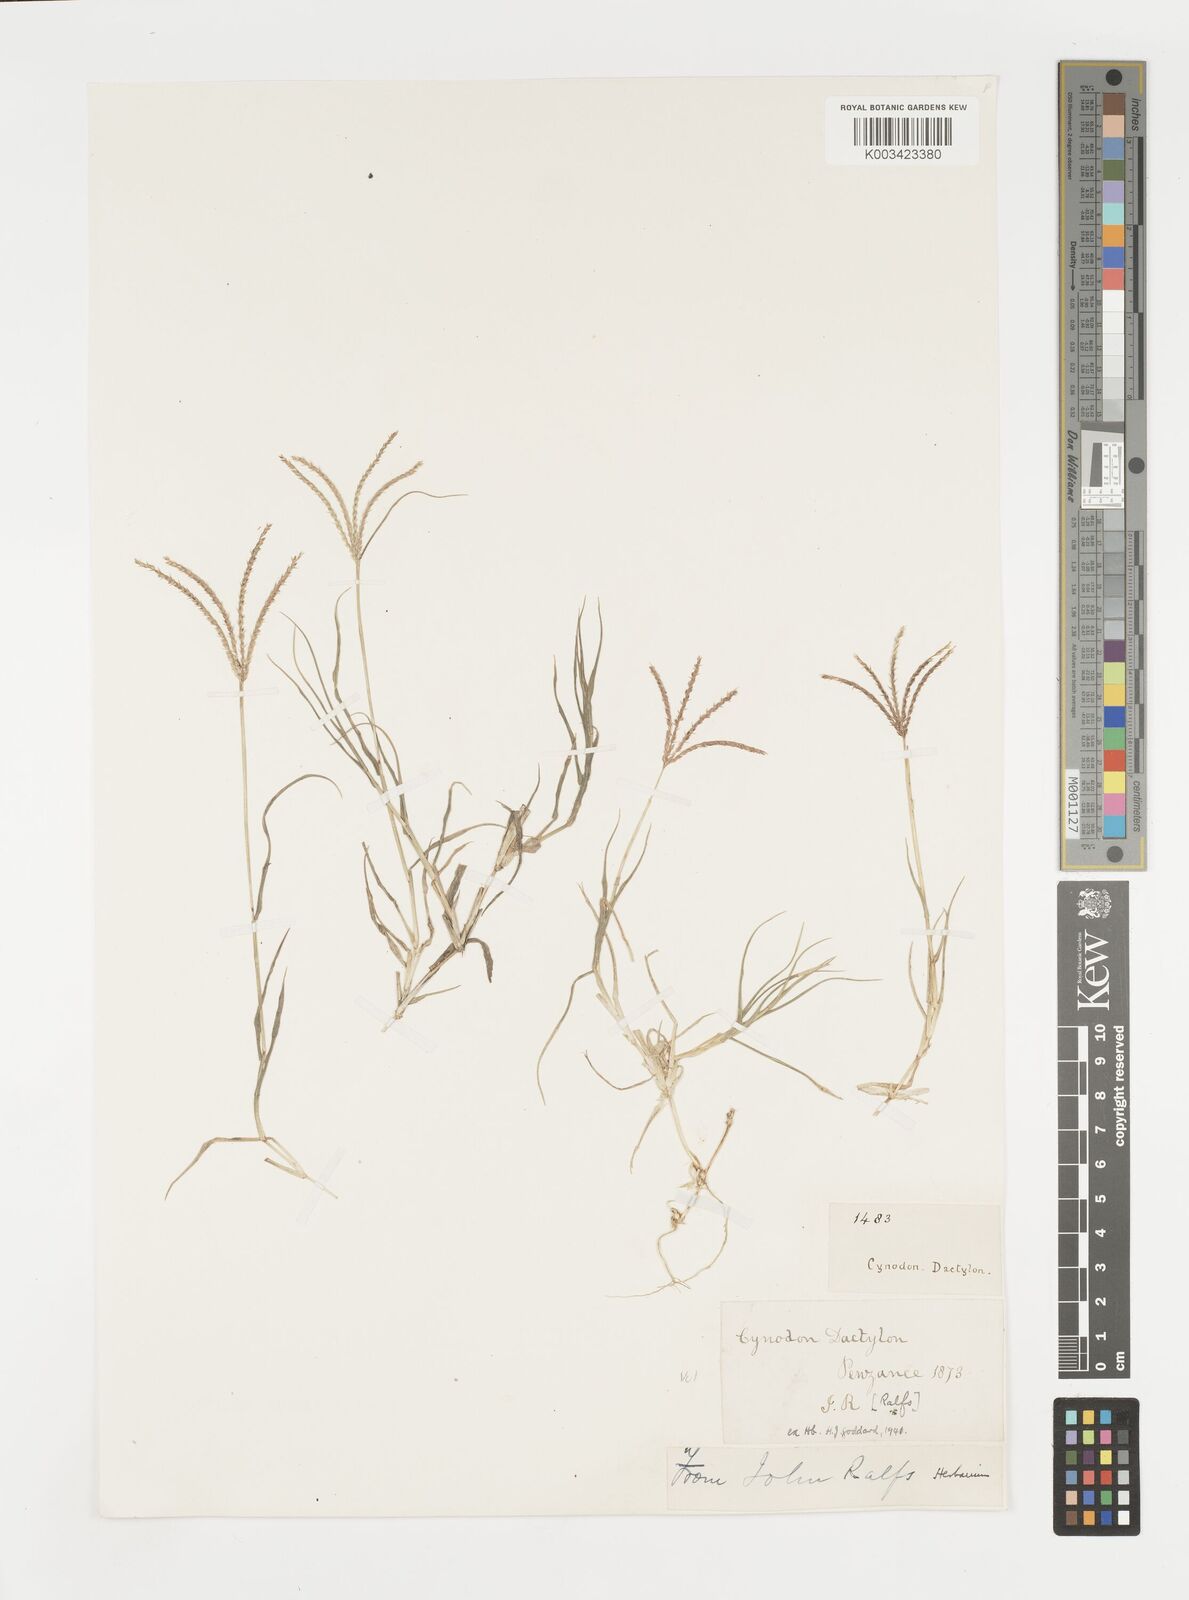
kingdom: Plantae
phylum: Tracheophyta
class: Liliopsida
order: Poales
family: Poaceae
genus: Cynodon
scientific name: Cynodon dactylon
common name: Bermuda grass
